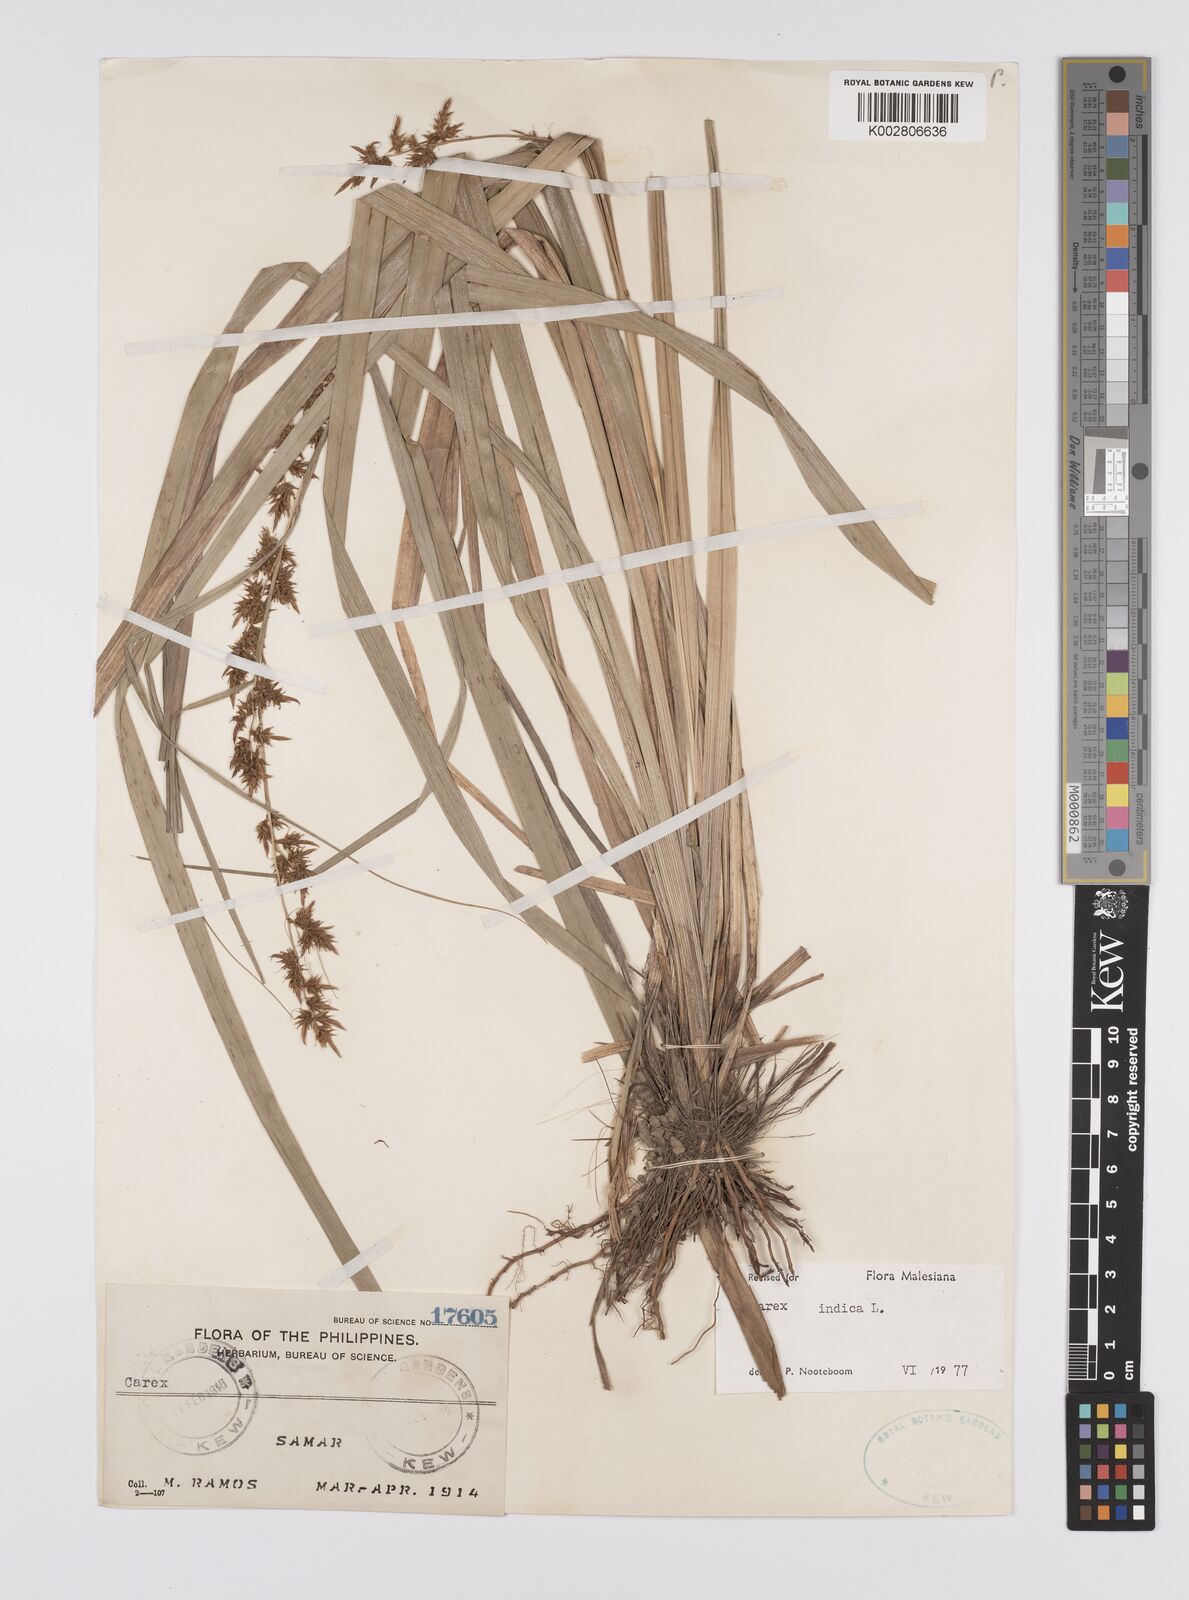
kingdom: Plantae
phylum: Tracheophyta
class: Liliopsida
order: Poales
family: Cyperaceae
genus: Carex
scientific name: Carex indica
